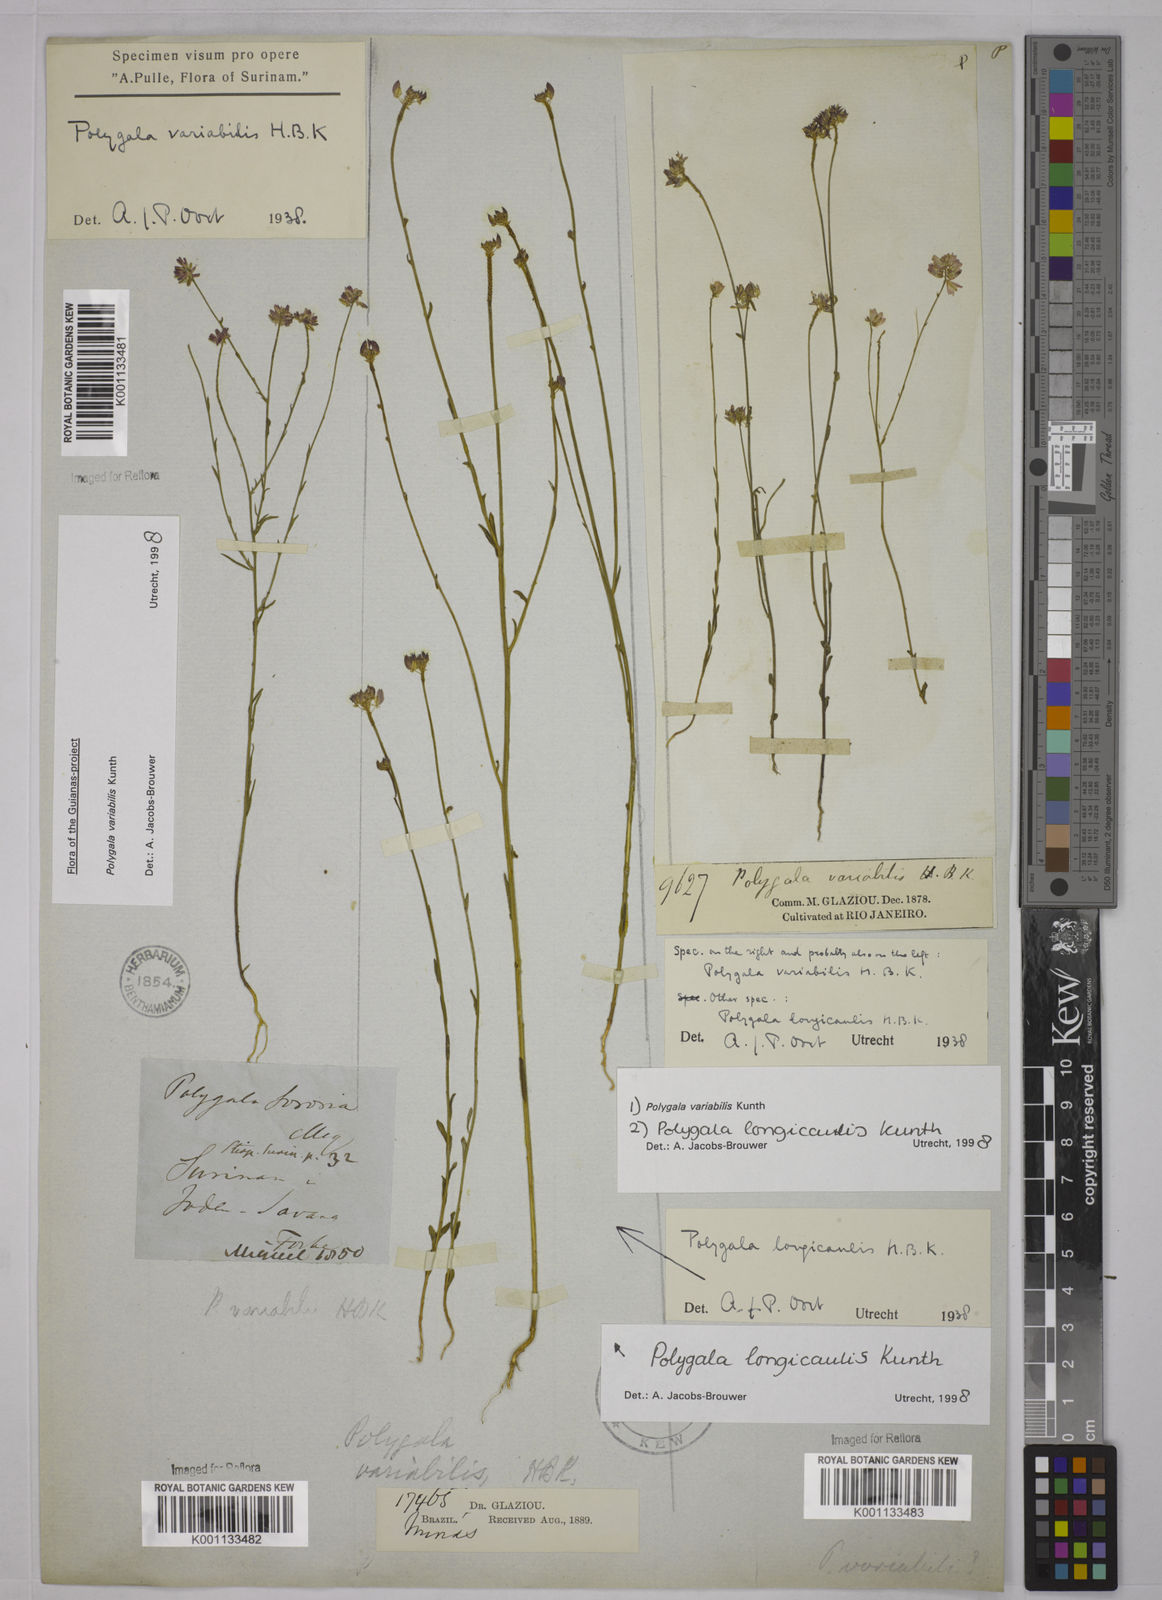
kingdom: Plantae
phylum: Tracheophyta
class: Magnoliopsida
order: Fabales
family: Polygalaceae
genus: Polygala
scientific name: Polygala trichosperma
